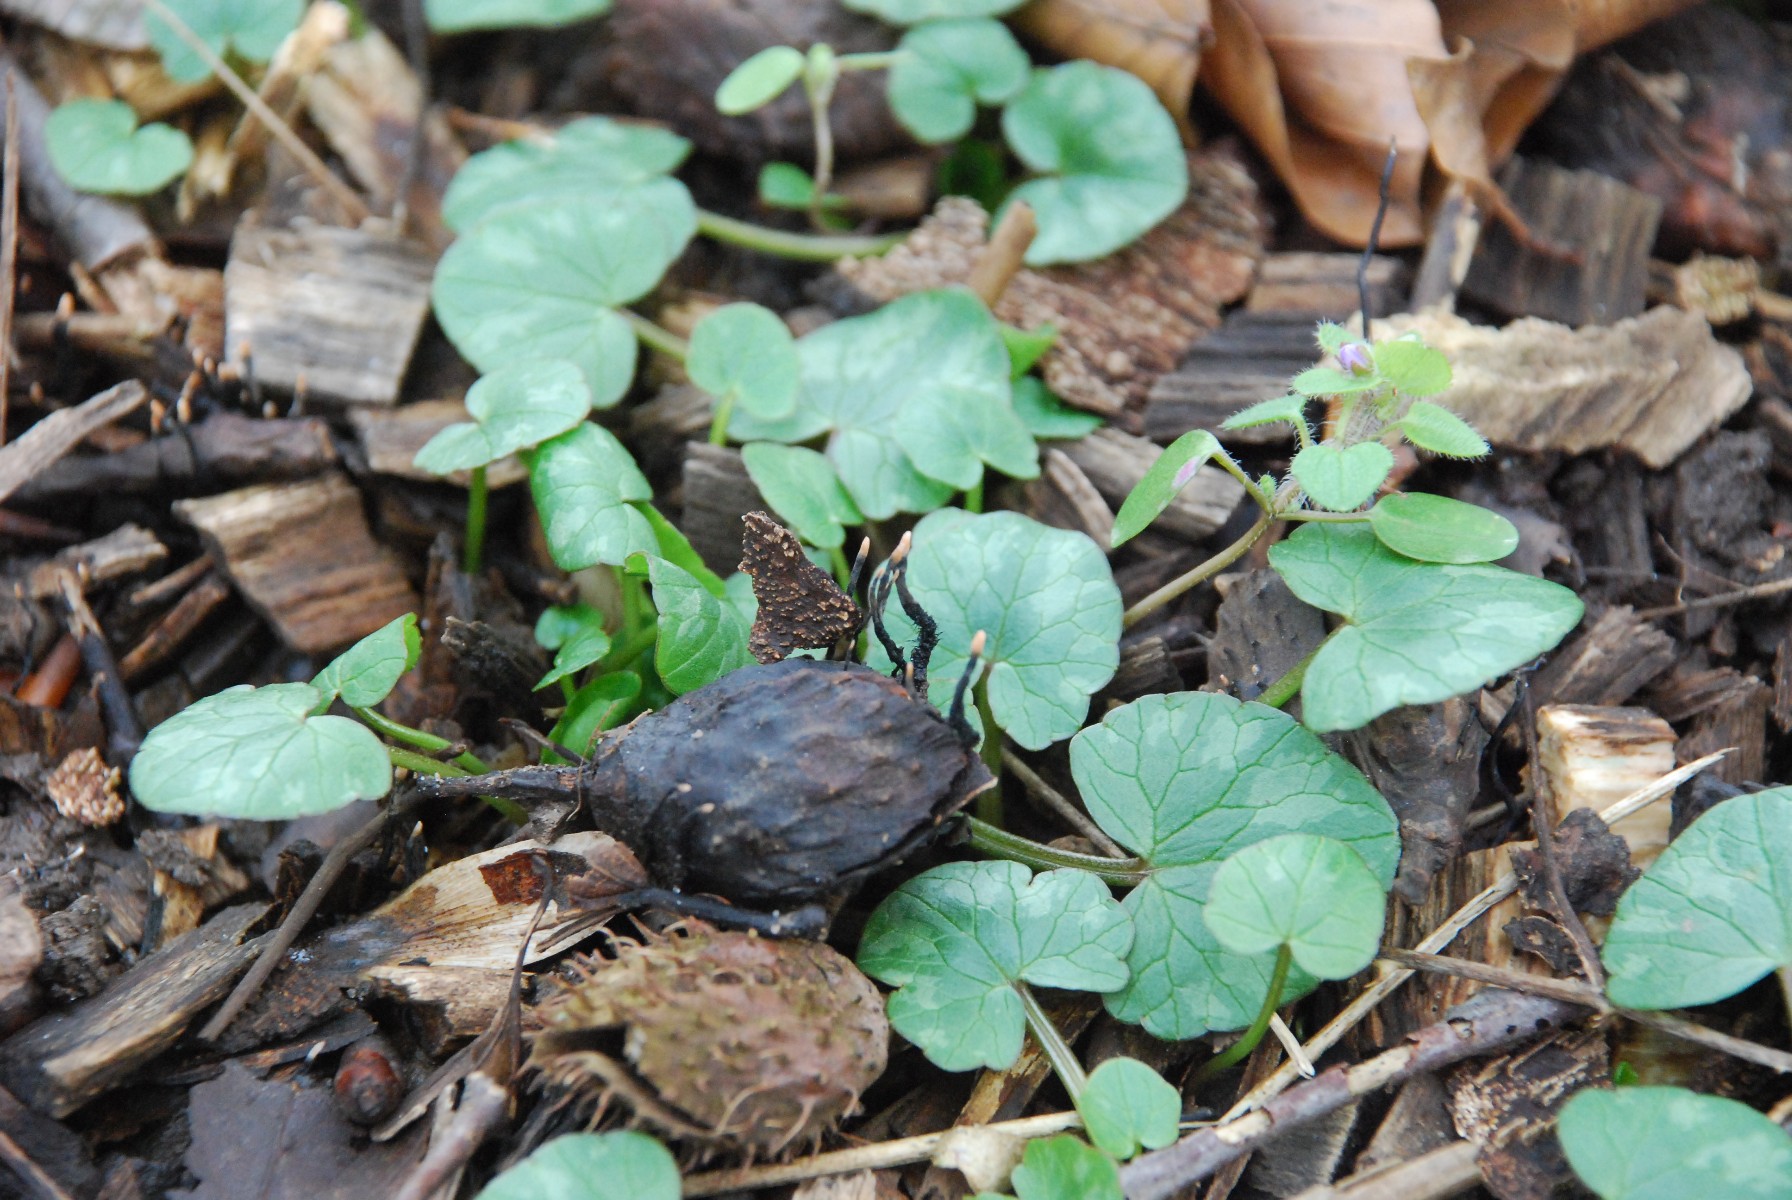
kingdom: Fungi
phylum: Ascomycota
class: Sordariomycetes
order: Xylariales
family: Xylariaceae
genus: Xylaria
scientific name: Xylaria carpophila
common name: bogskål-stødsvamp
